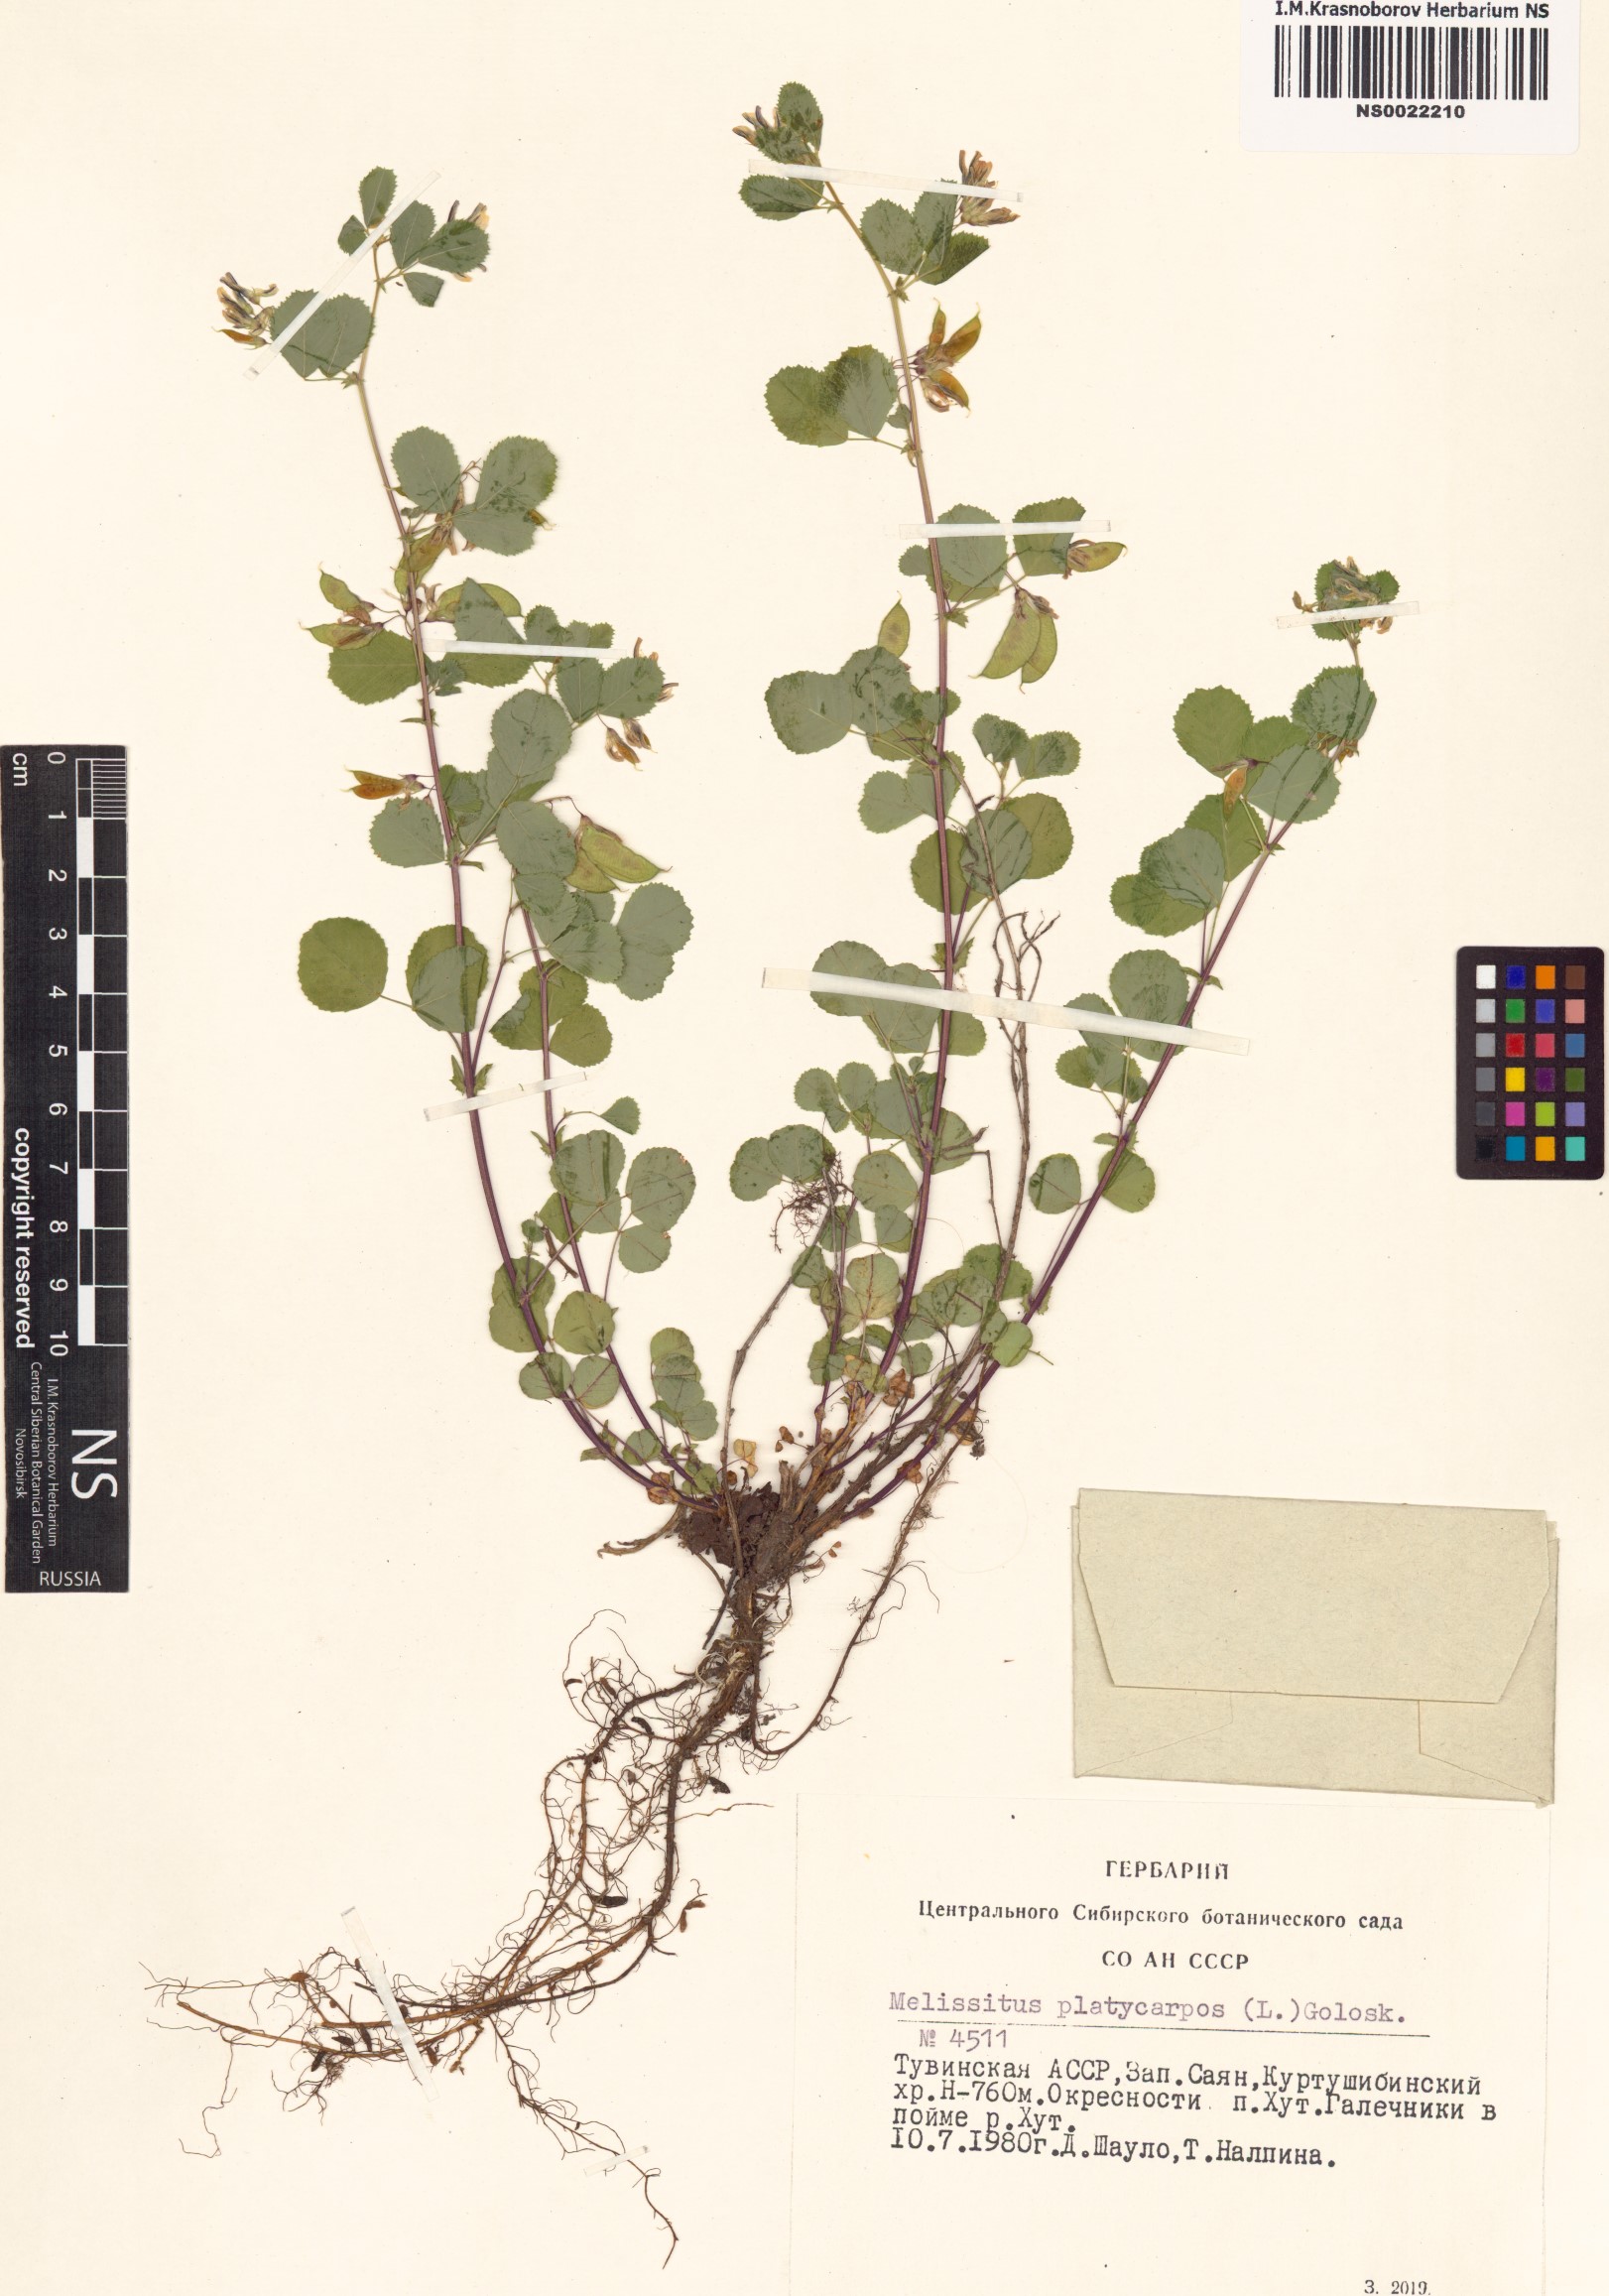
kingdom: Plantae
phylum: Tracheophyta
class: Magnoliopsida
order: Fabales
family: Fabaceae
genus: Medicago
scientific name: Medicago platycarpos
